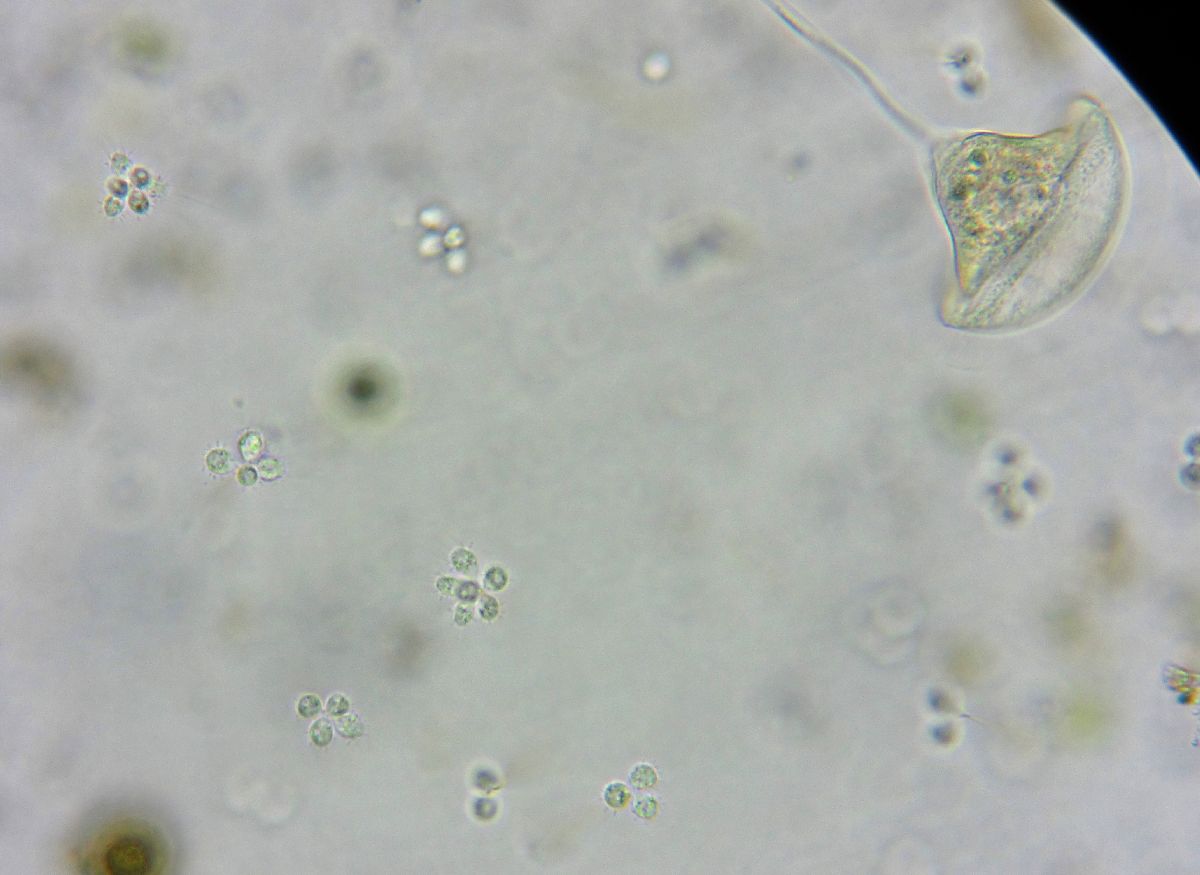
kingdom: Protozoa
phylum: Choanozoa
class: Choanoflagellatea
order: Choanoflagellida
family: Codosigidae
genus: Codosiga
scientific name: Codosiga botrytis
